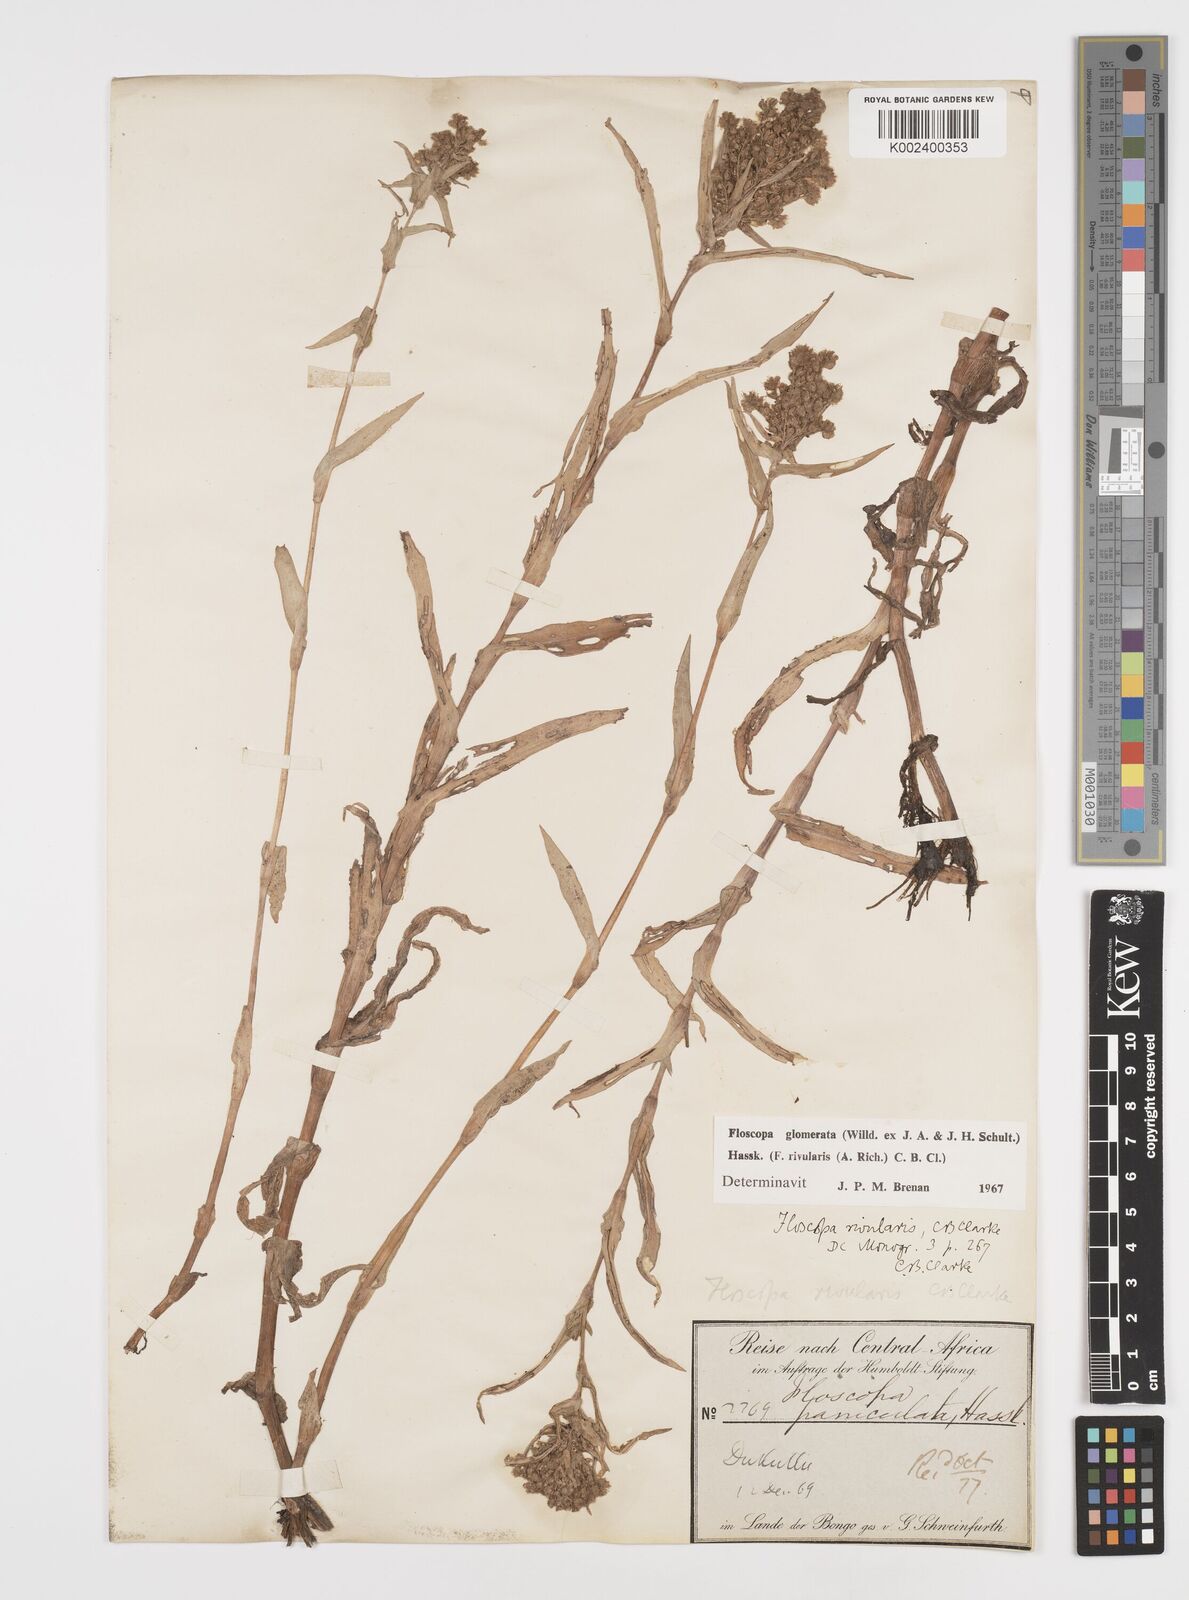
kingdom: Plantae
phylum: Tracheophyta
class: Liliopsida
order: Commelinales
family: Commelinaceae
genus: Floscopa
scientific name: Floscopa glomerata
